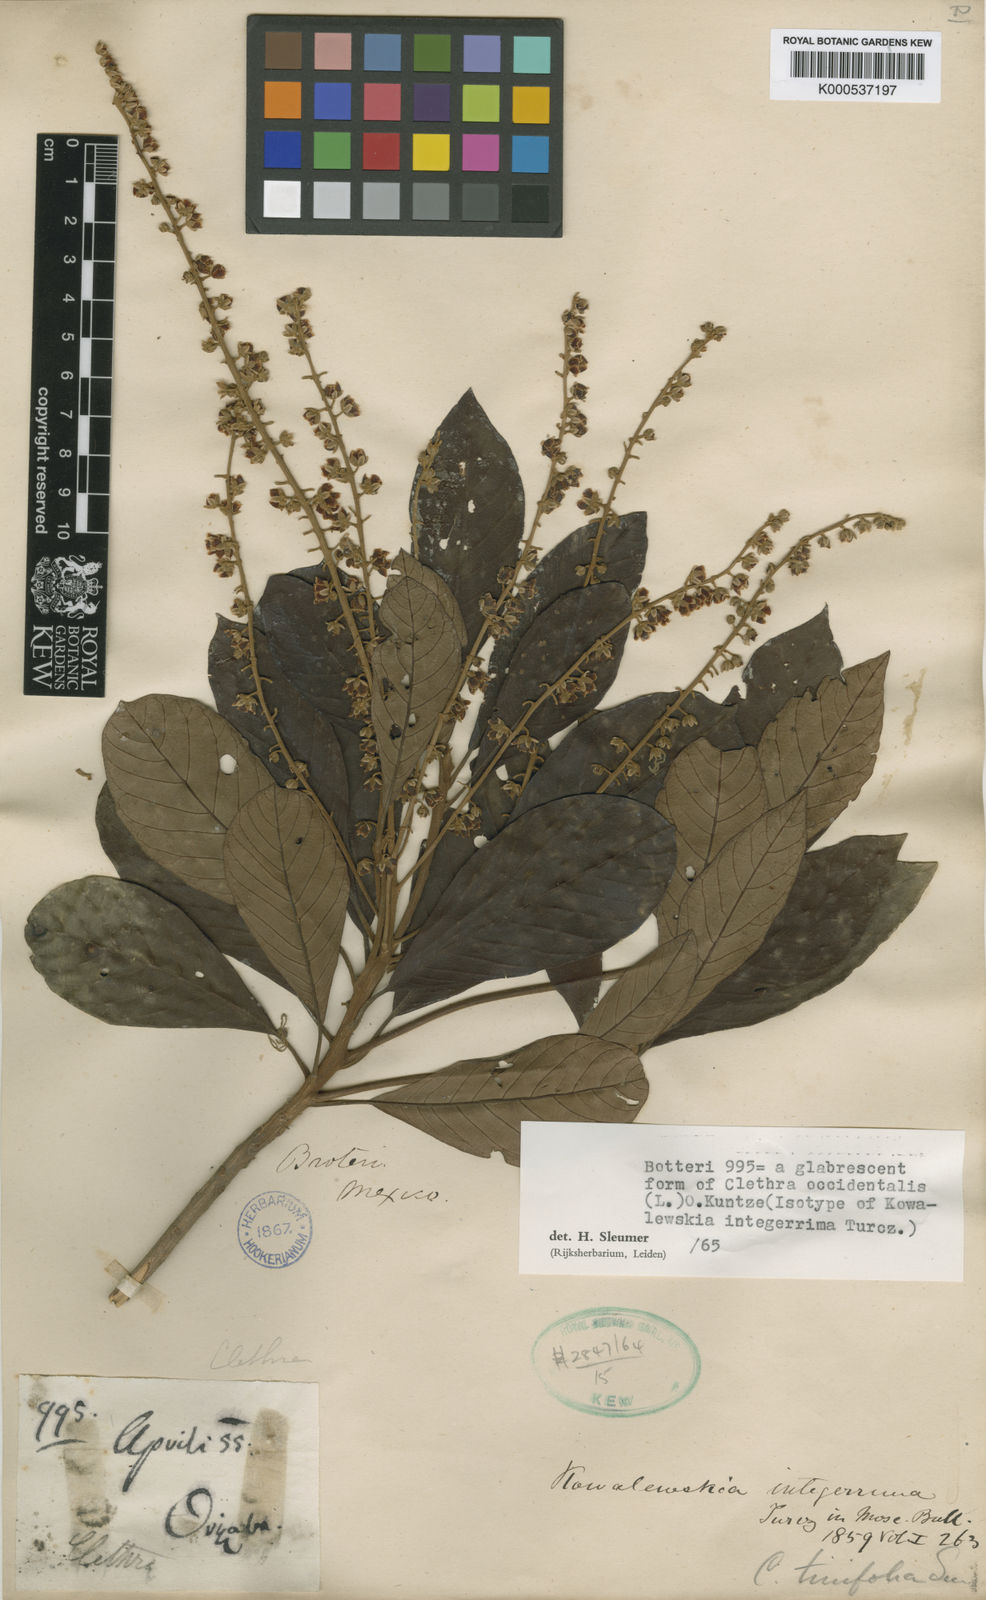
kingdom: Plantae
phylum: Tracheophyta
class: Magnoliopsida
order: Ericales
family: Clethraceae
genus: Clethra
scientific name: Clethra occidentalis
